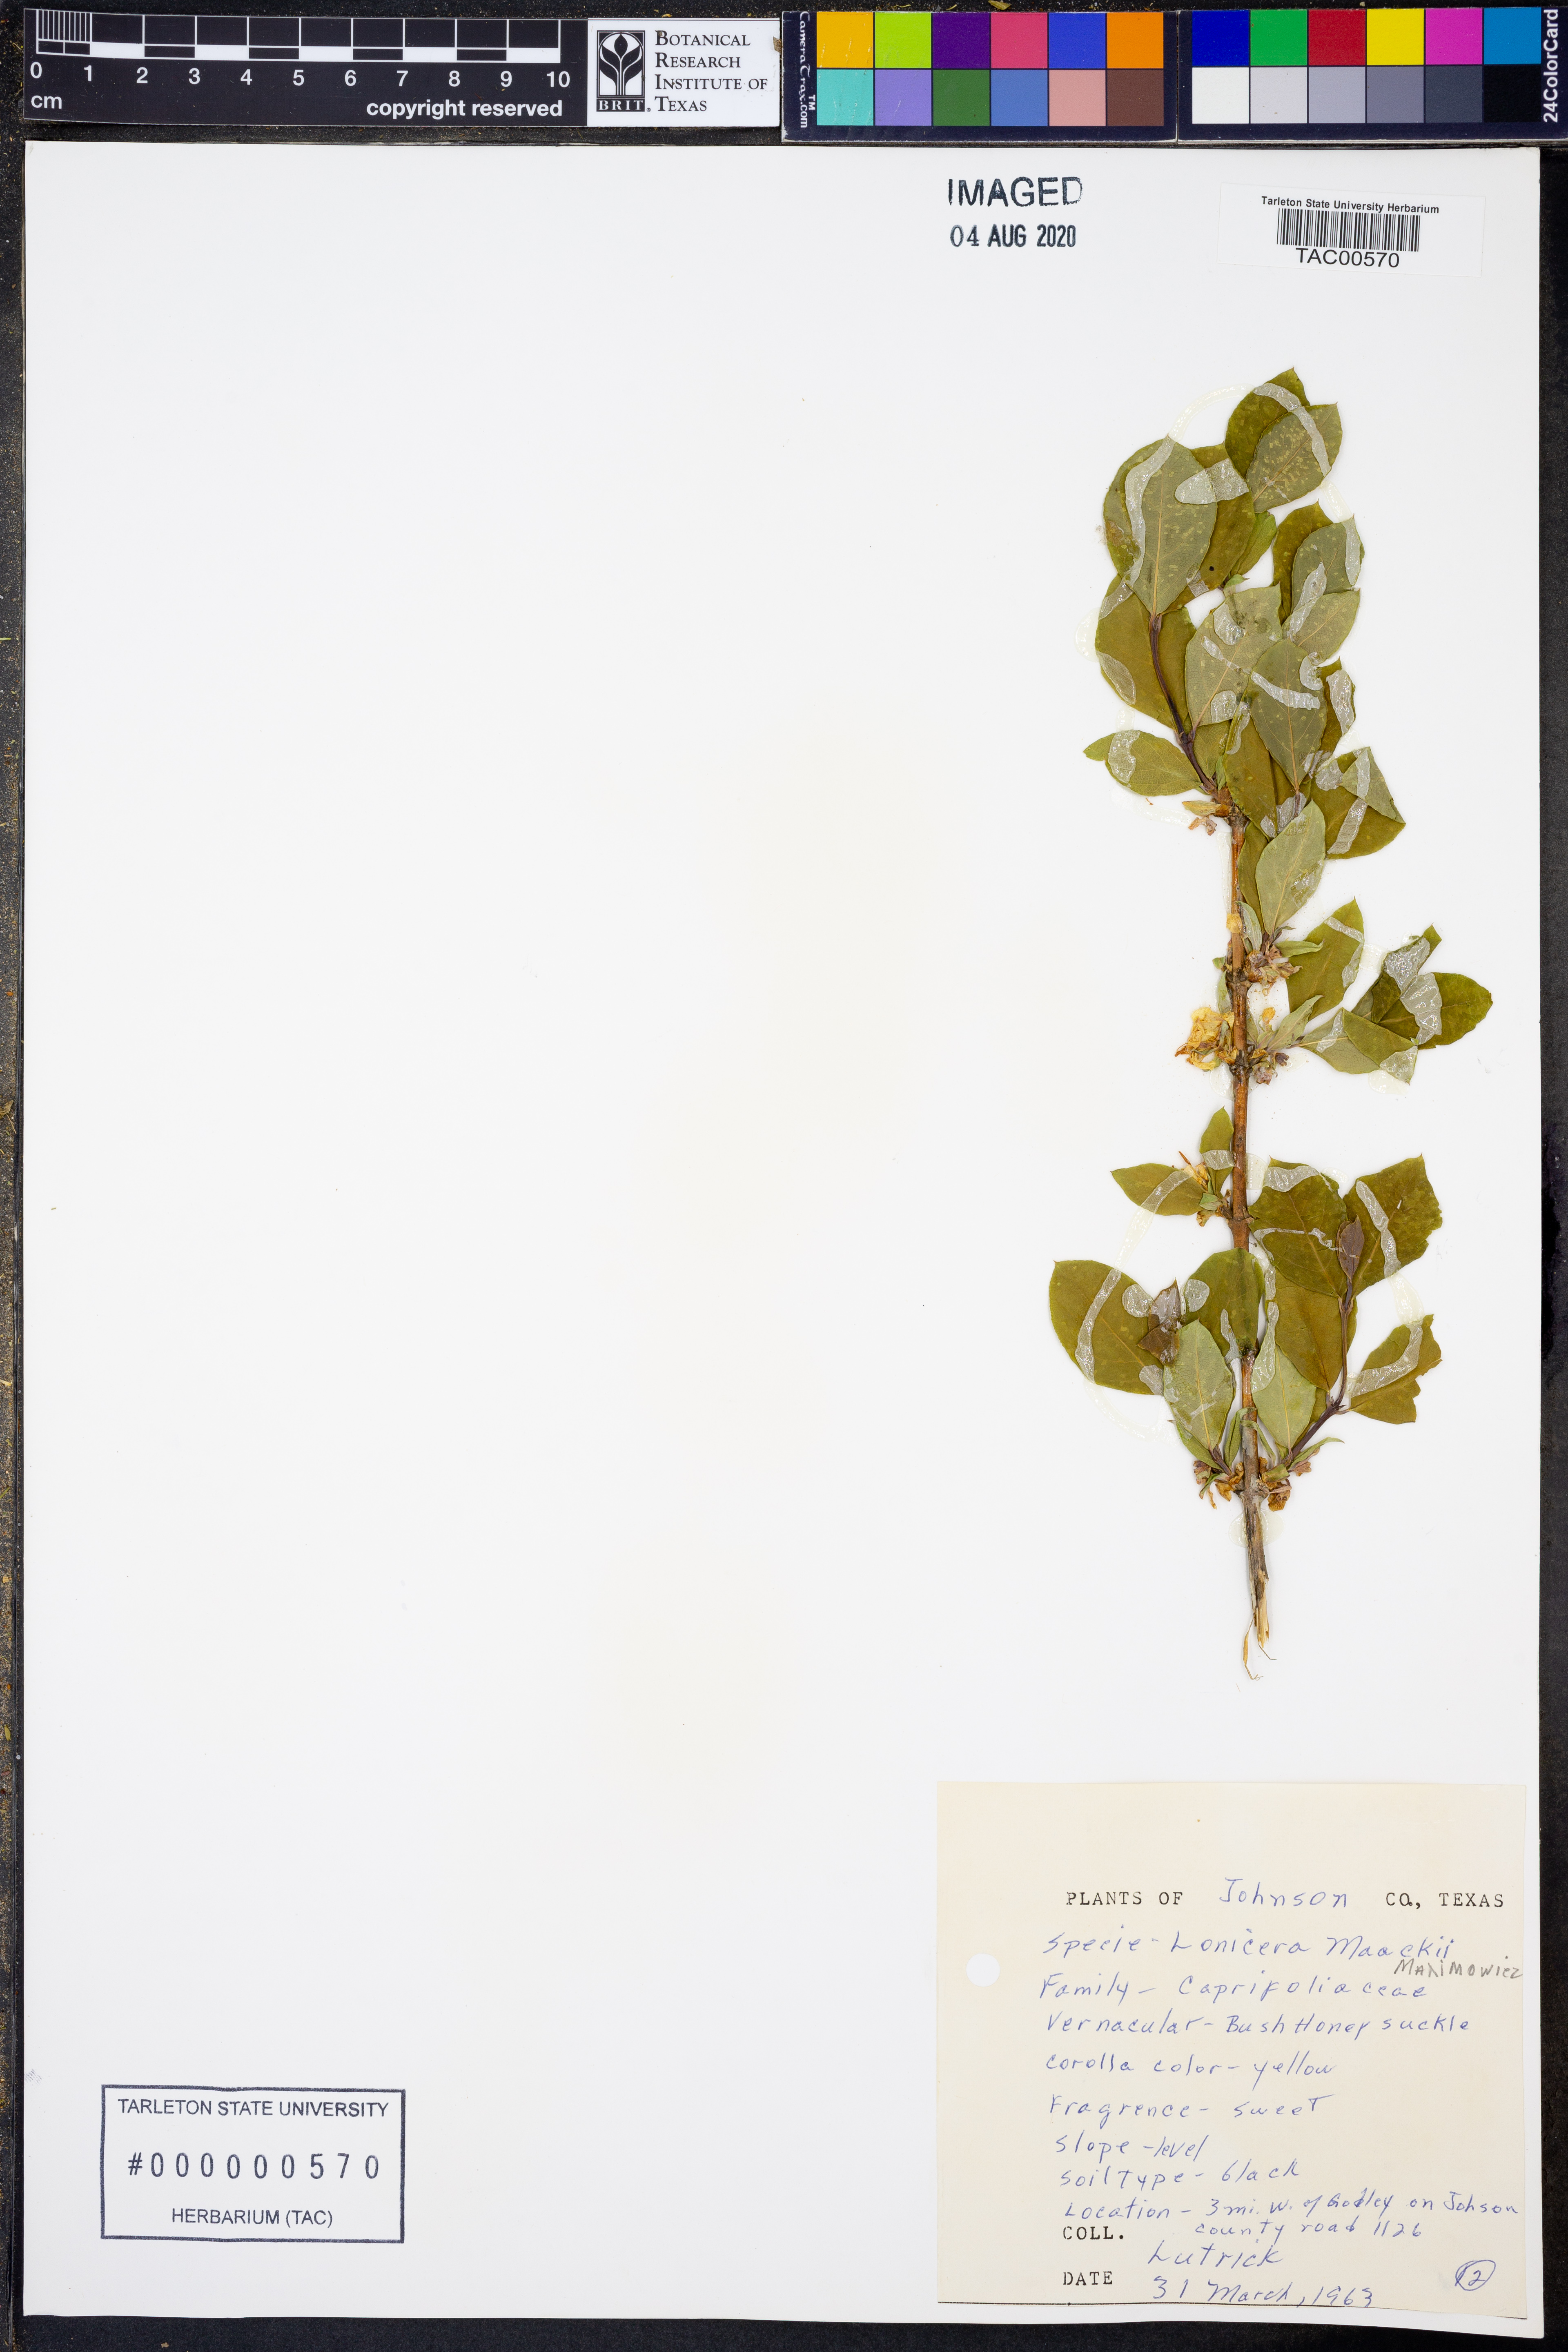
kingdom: Plantae
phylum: Tracheophyta
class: Magnoliopsida
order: Dipsacales
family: Caprifoliaceae
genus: Lonicera
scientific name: Lonicera maackii
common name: Amur honeysuckle
